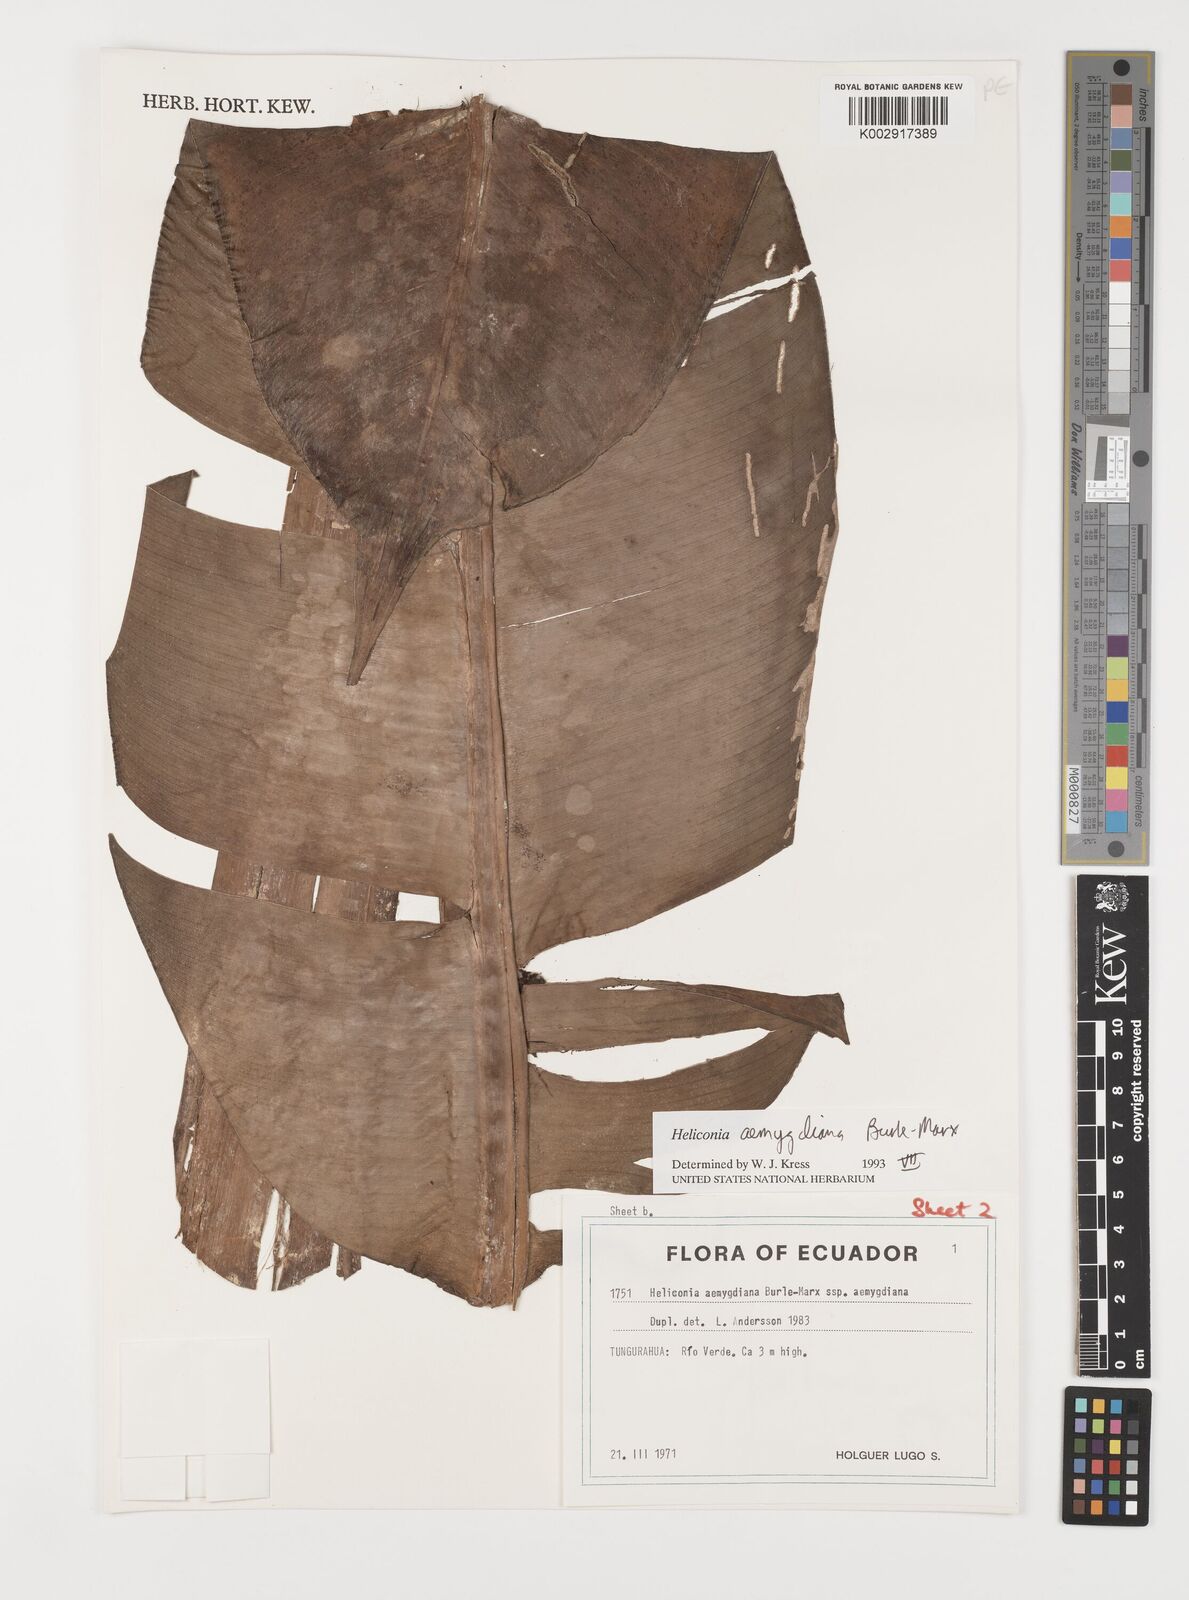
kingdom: Plantae
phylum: Tracheophyta
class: Liliopsida
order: Zingiberales
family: Heliconiaceae
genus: Heliconia
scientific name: Heliconia aemygdiana
